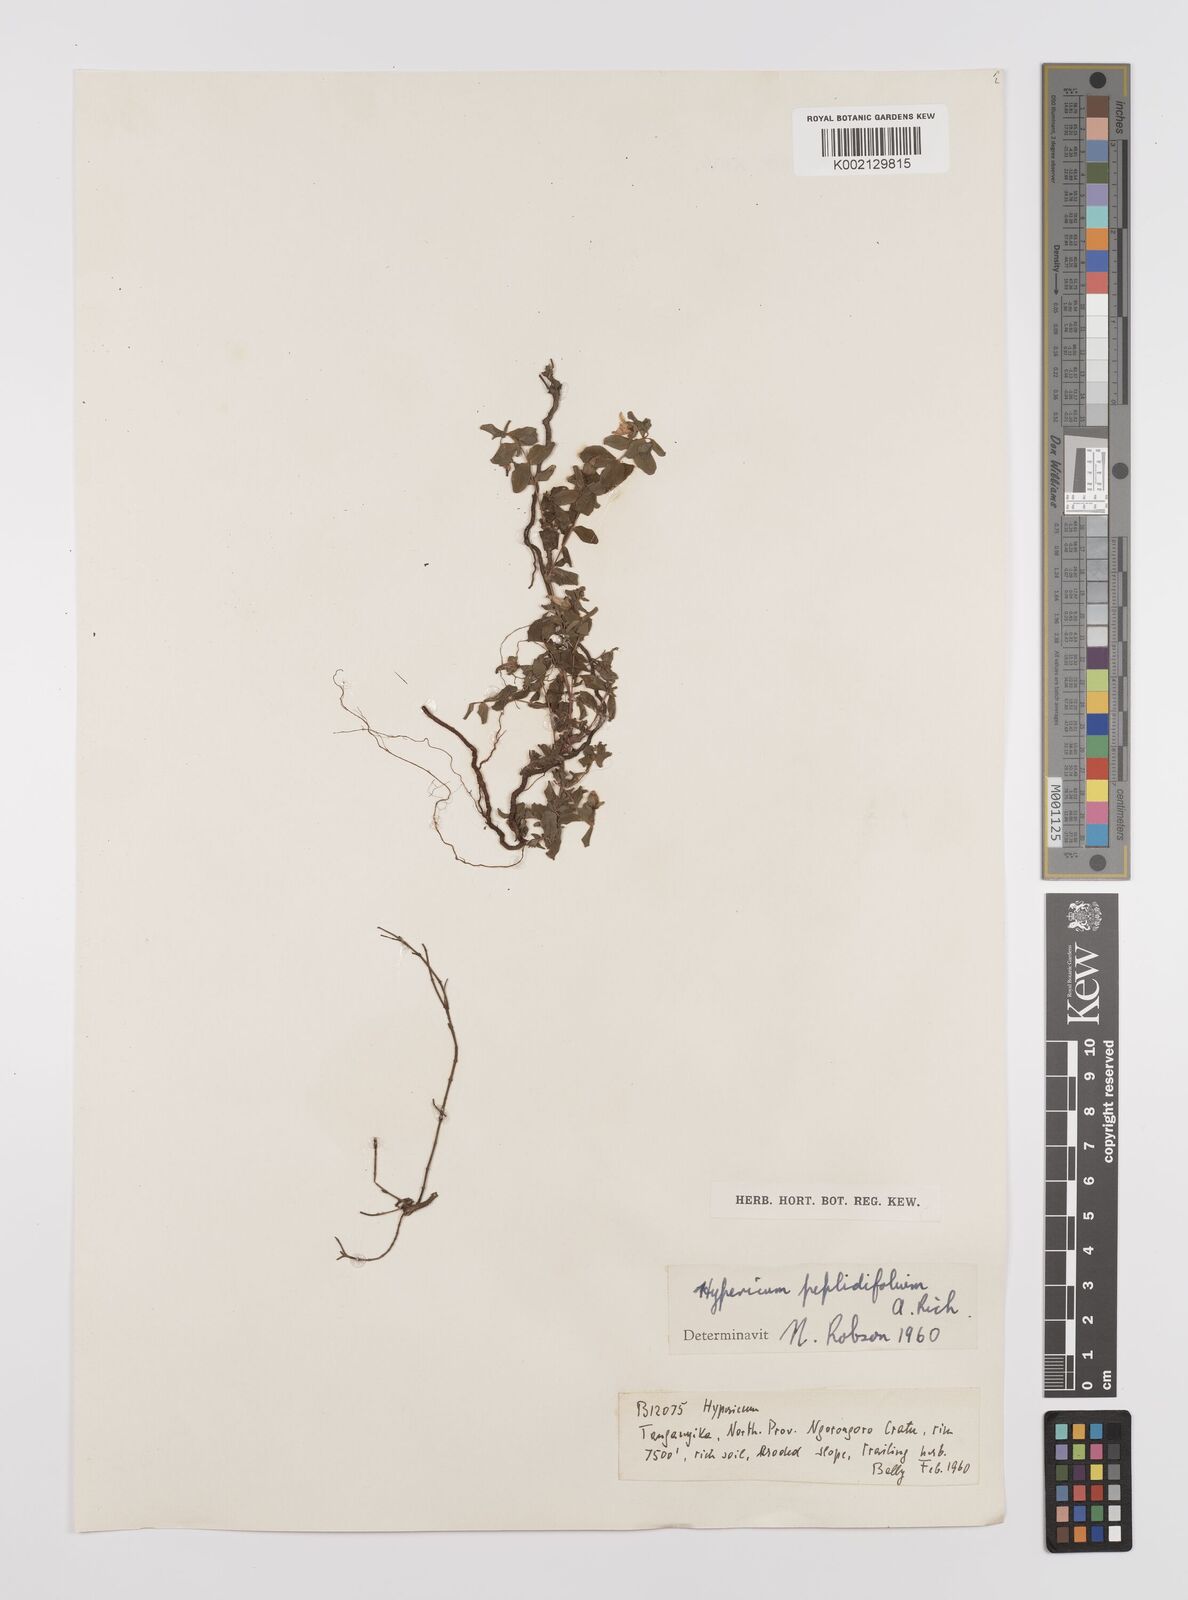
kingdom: Plantae
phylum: Tracheophyta
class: Magnoliopsida
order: Malpighiales
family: Hypericaceae
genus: Hypericum
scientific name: Hypericum peplidifolium
